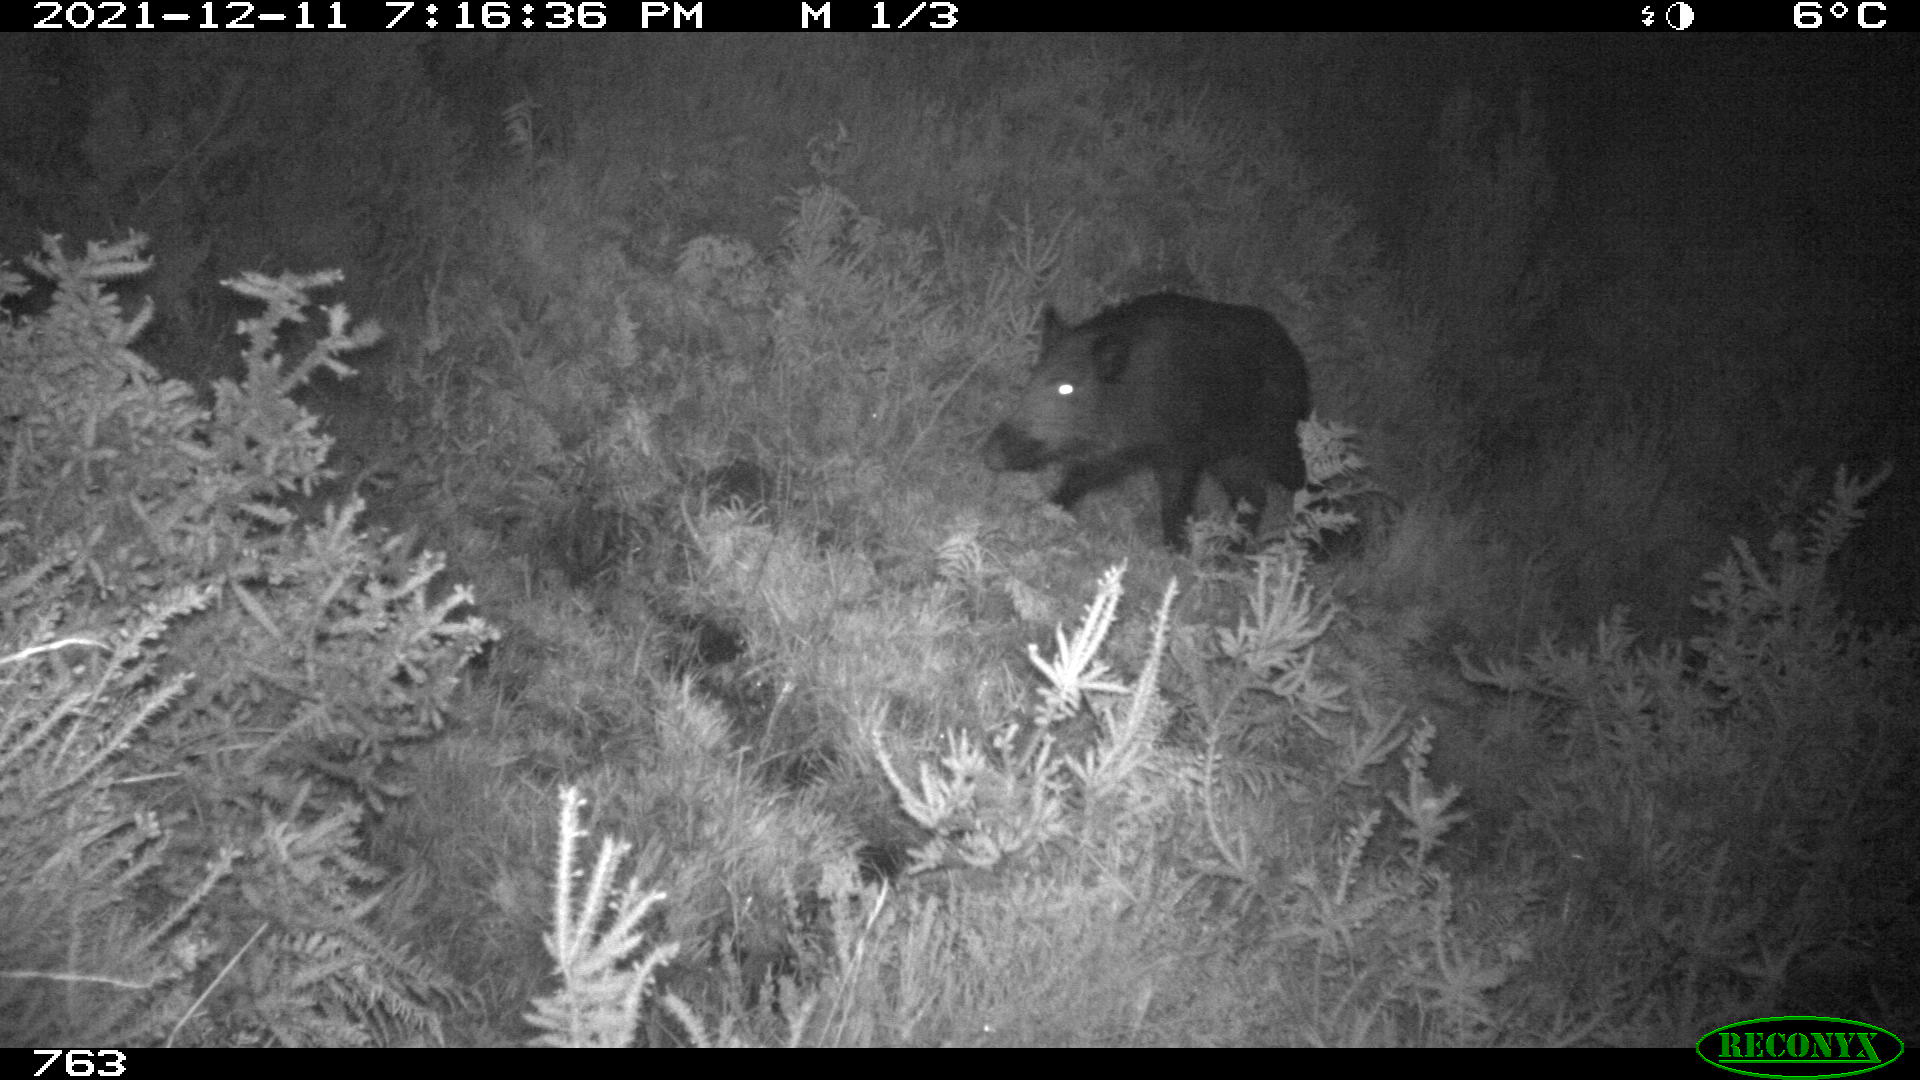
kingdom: Animalia
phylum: Chordata
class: Mammalia
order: Artiodactyla
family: Suidae
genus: Sus
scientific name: Sus scrofa
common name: Wild boar
